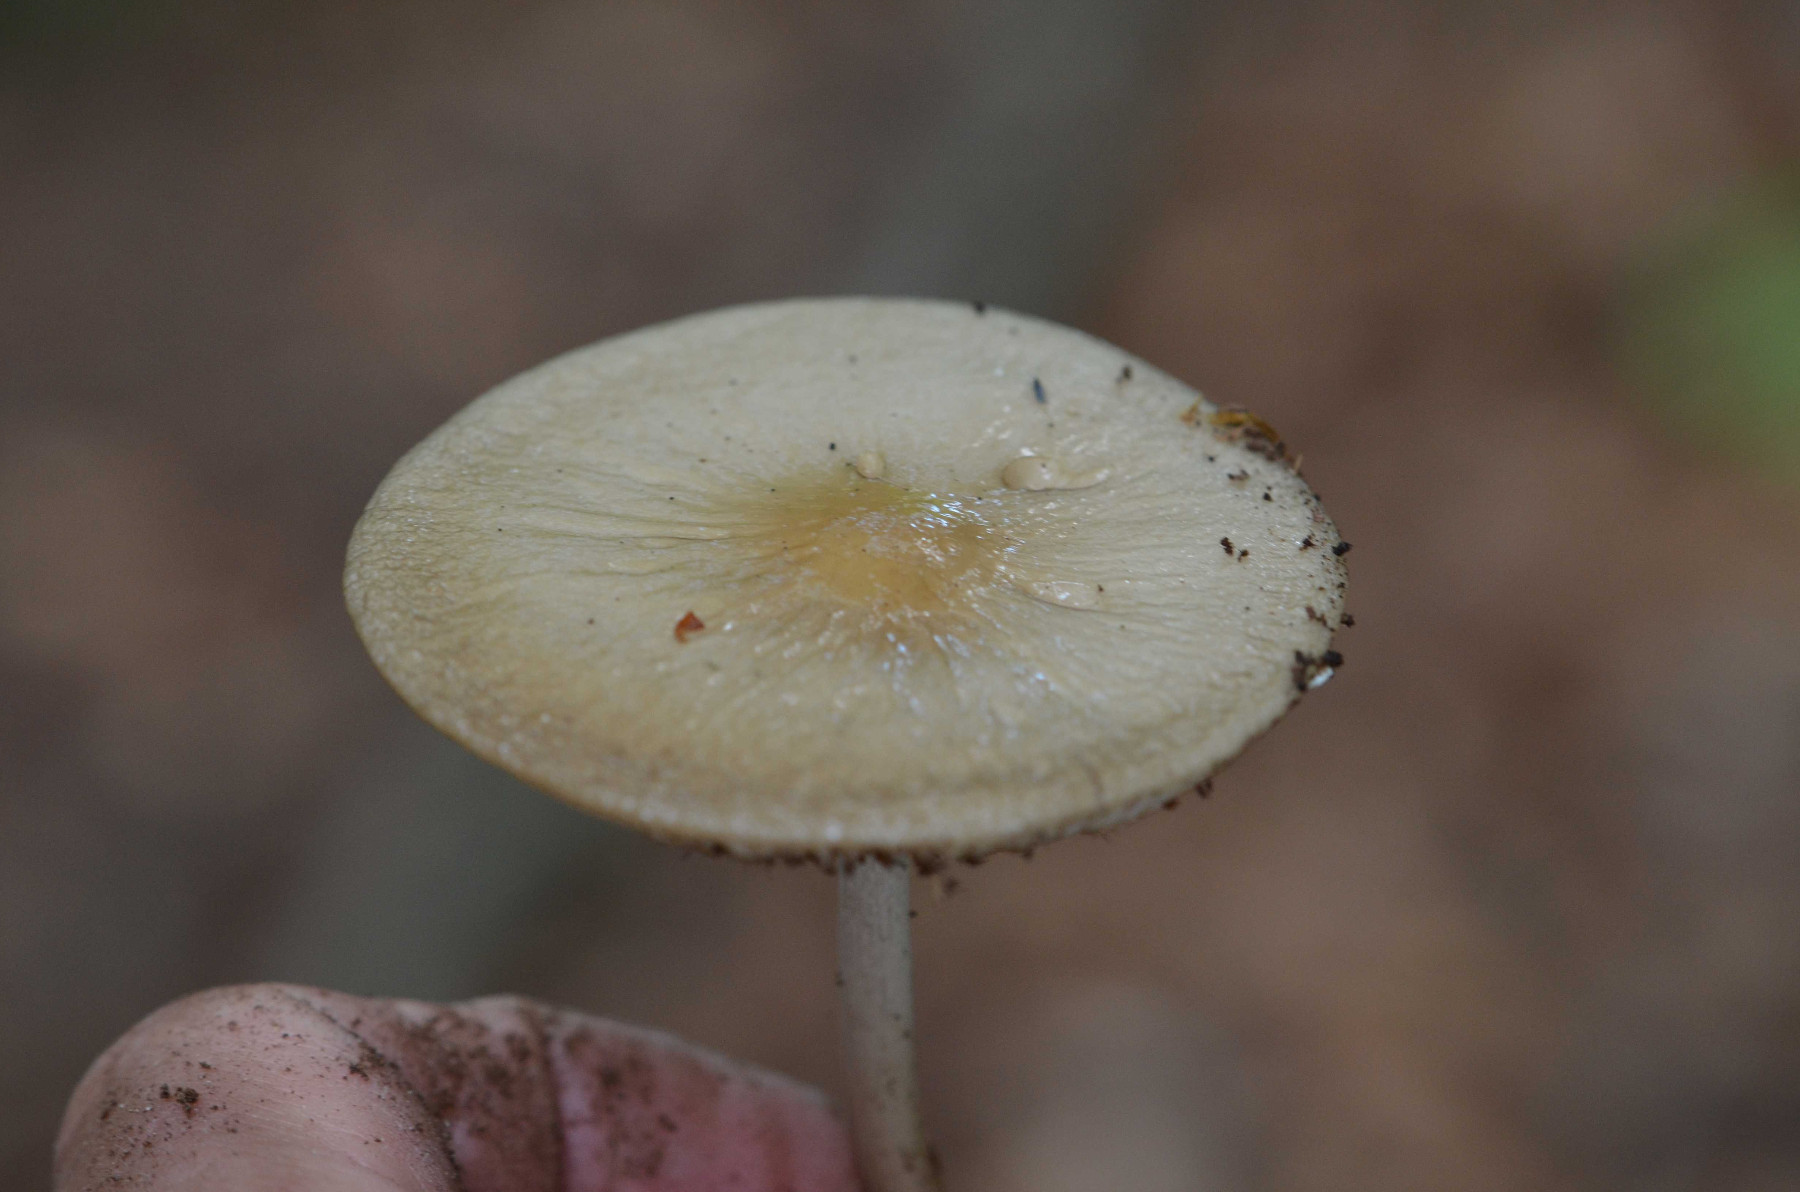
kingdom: Fungi
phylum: Basidiomycota
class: Agaricomycetes
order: Agaricales
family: Physalacriaceae
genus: Hymenopellis
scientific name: Hymenopellis radicata
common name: almindelig pælerodshat
